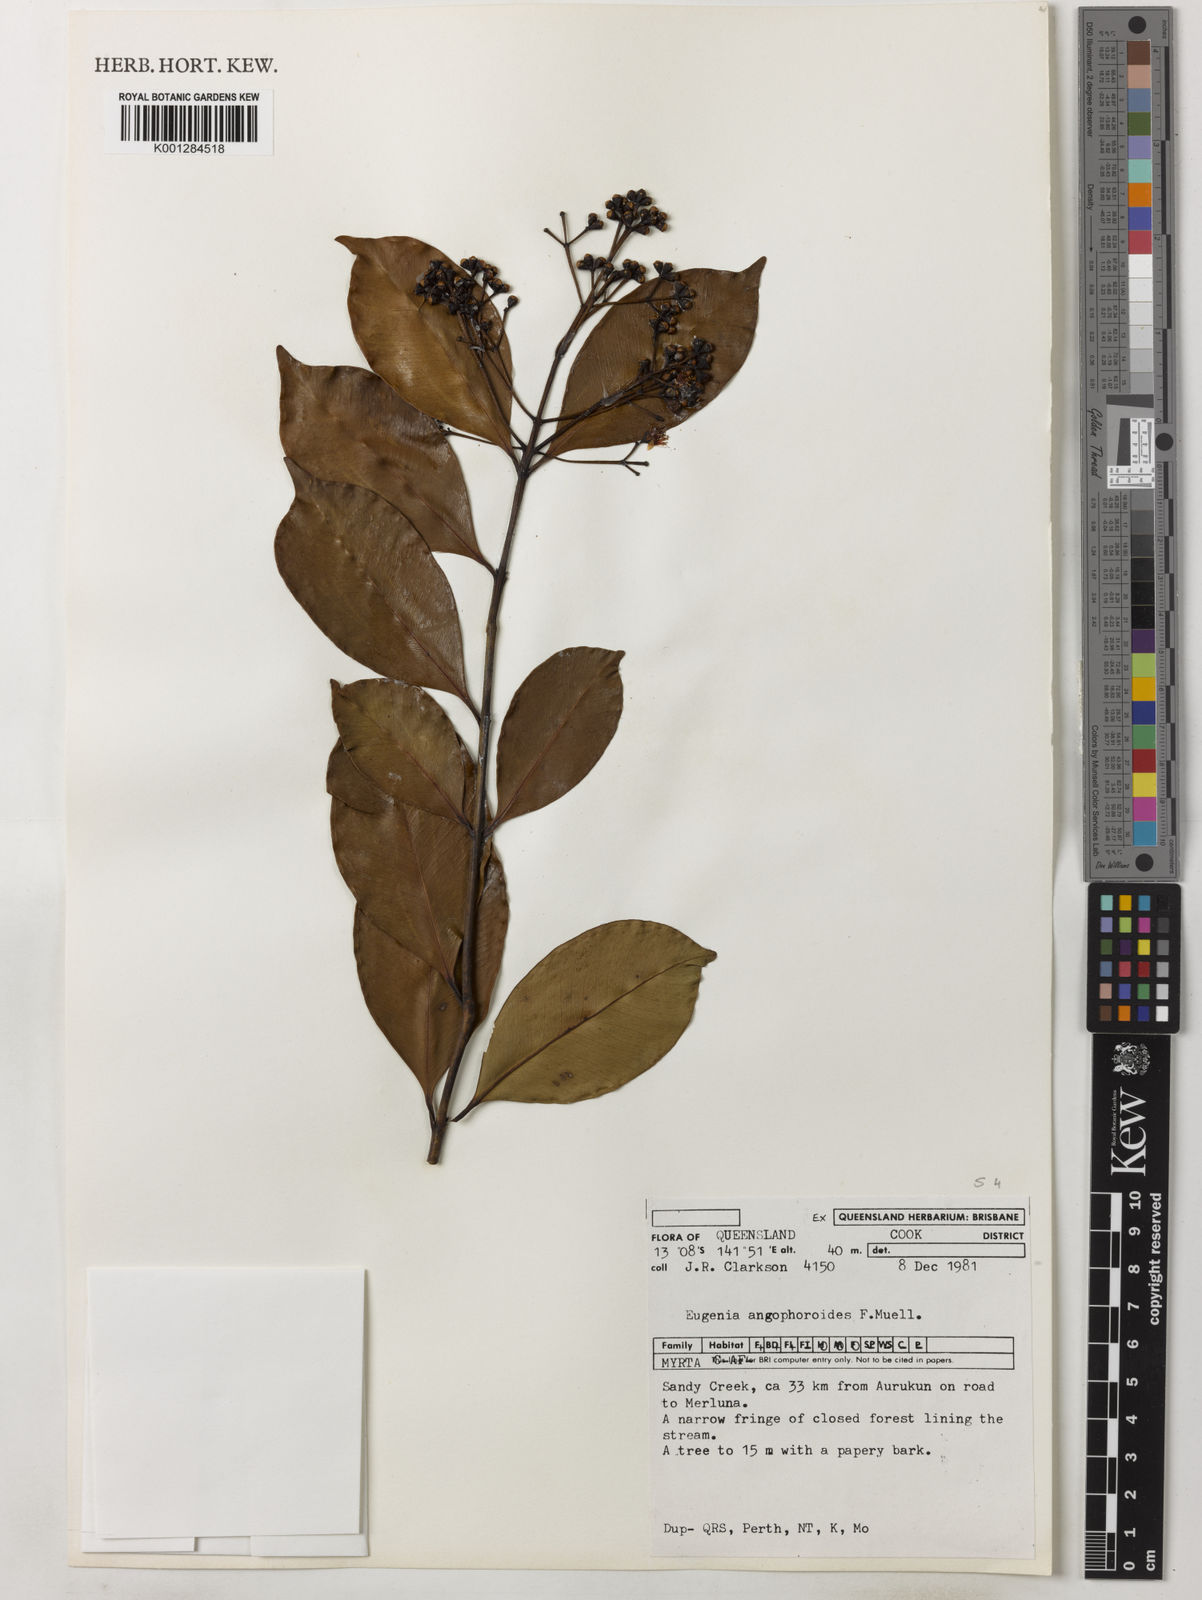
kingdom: Plantae
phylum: Tracheophyta
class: Magnoliopsida
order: Myrtales
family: Myrtaceae
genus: Syzygium
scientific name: Syzygium angophoroides
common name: Swamp satinash
